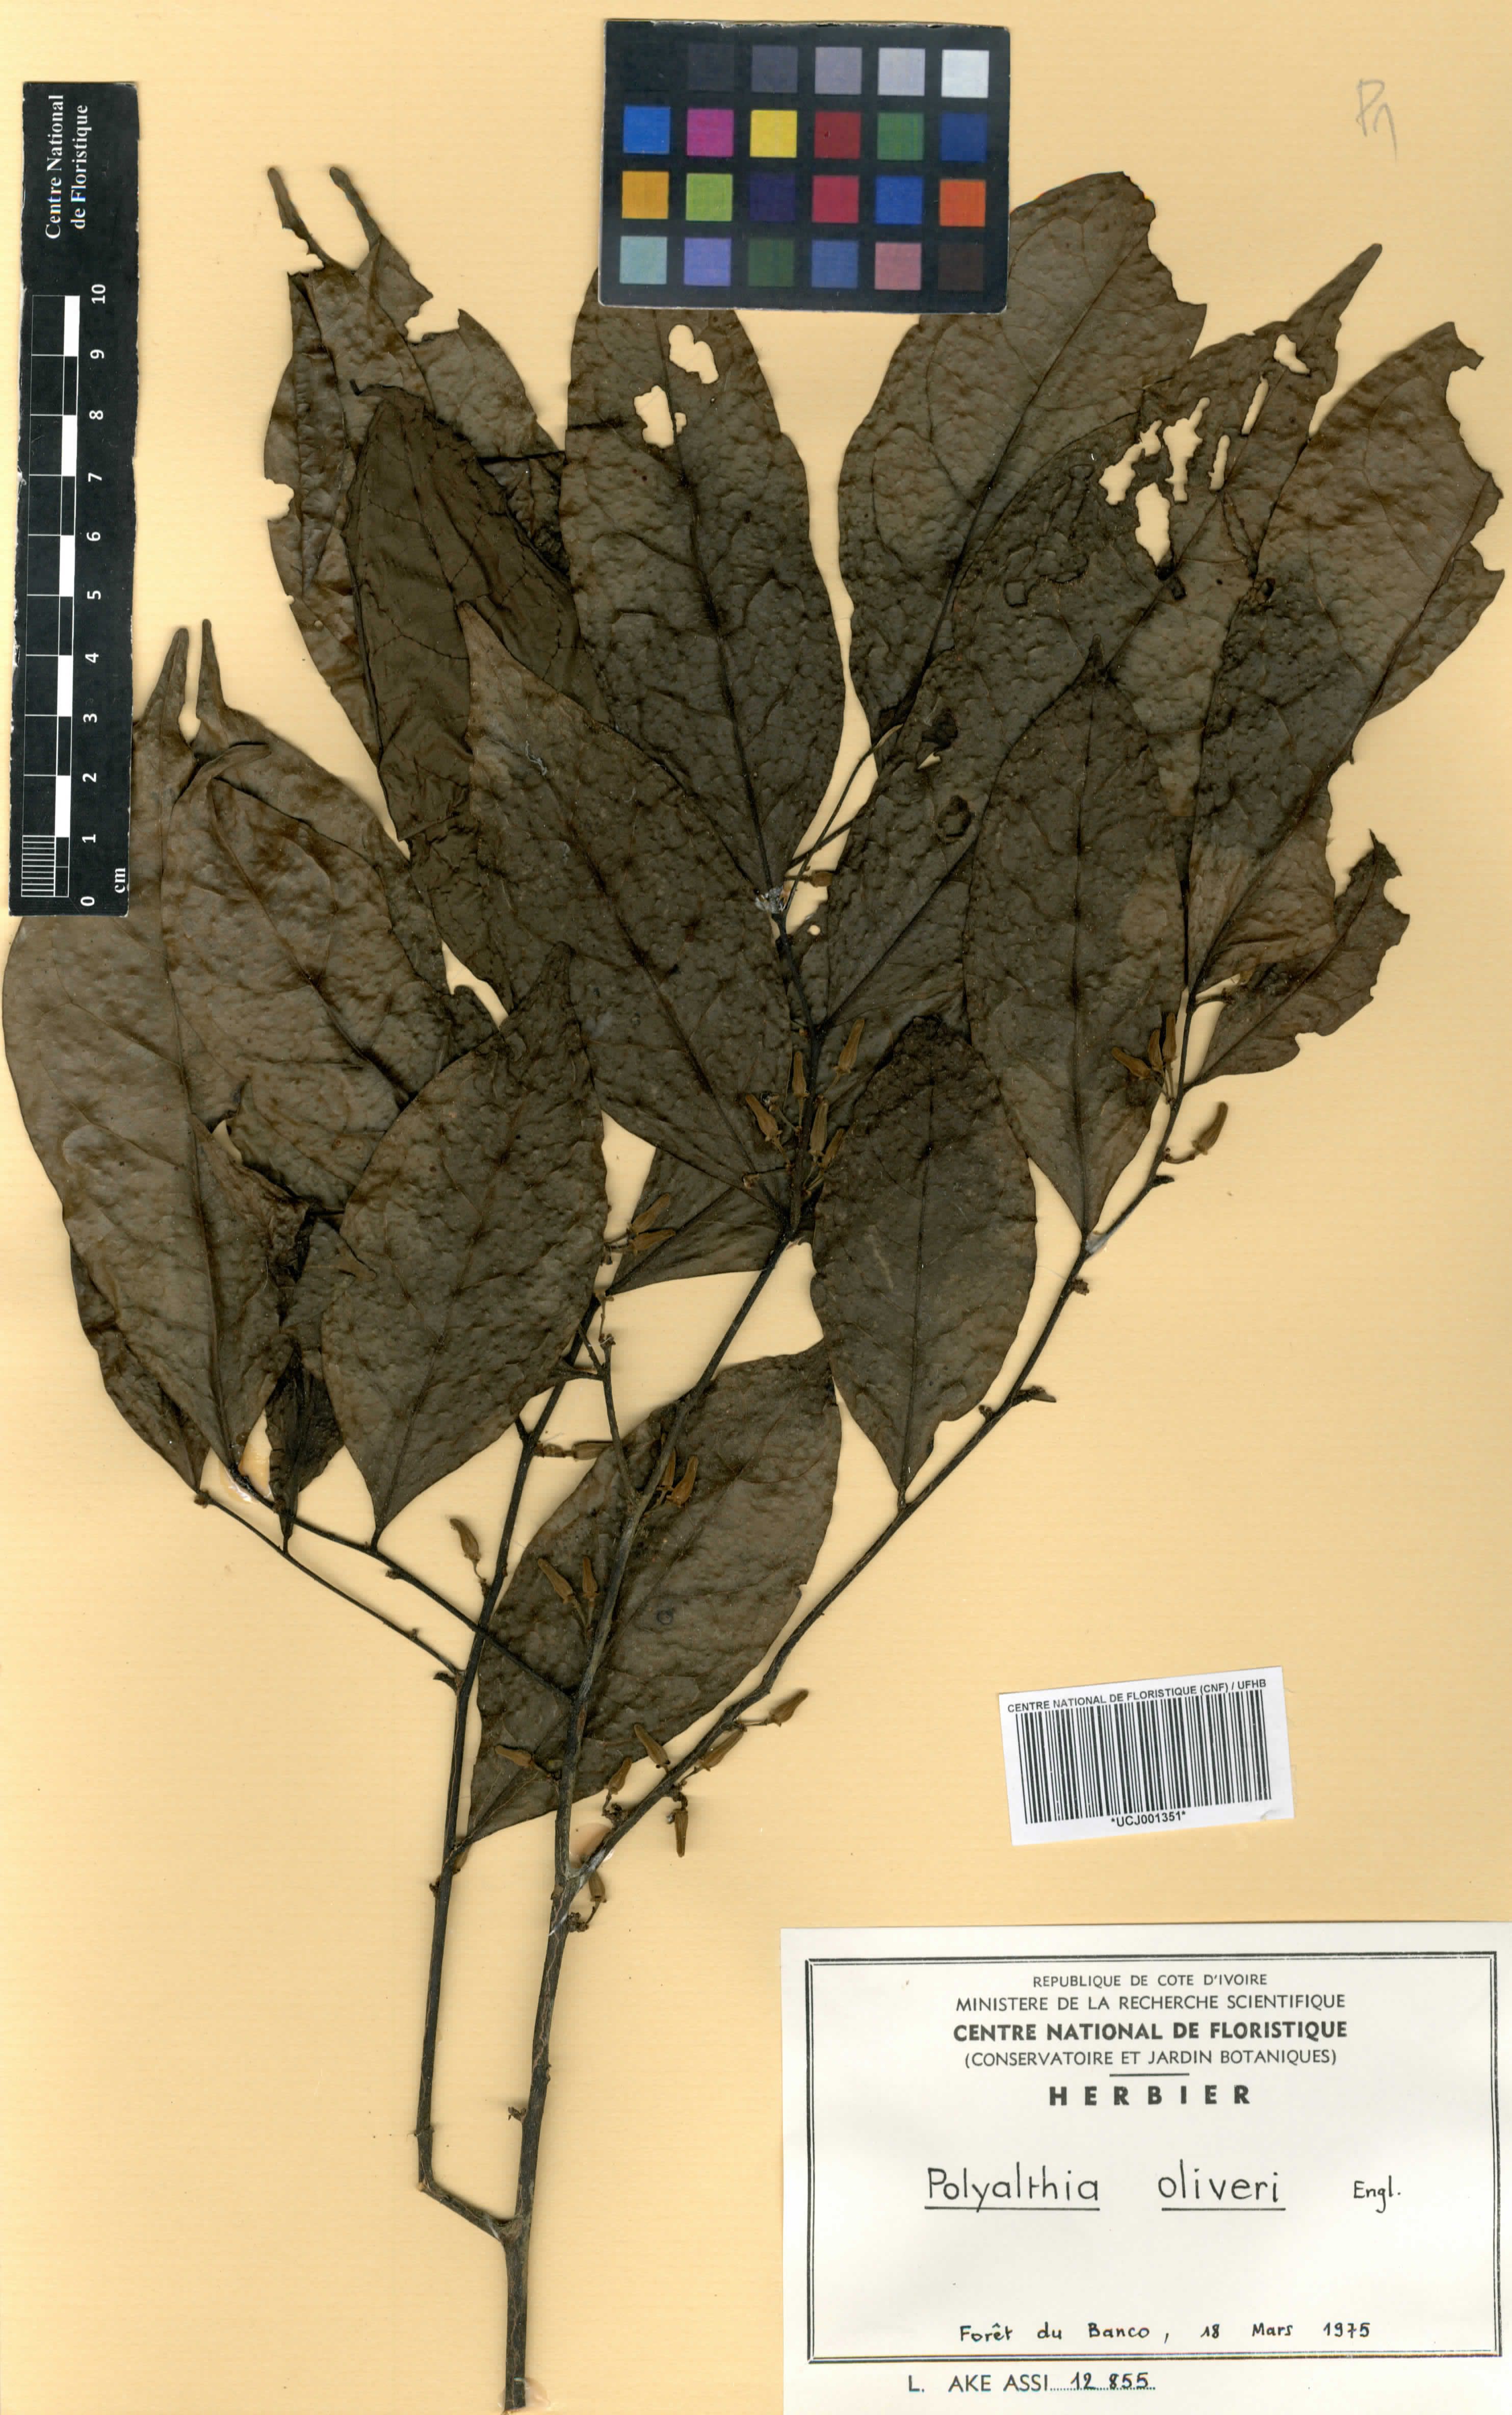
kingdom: Plantae
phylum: Tracheophyta
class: Magnoliopsida
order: Magnoliales
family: Annonaceae
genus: Greenwayodendron
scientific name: Greenwayodendron oliveri
